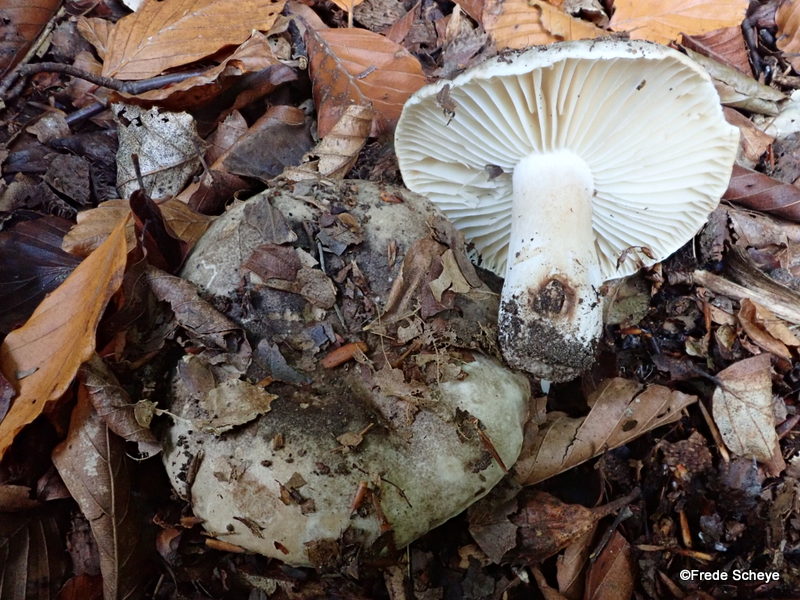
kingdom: Fungi
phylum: Basidiomycota
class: Agaricomycetes
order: Russulales
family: Russulaceae
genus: Russula
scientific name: Russula adusta
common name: sværtende skørhat
